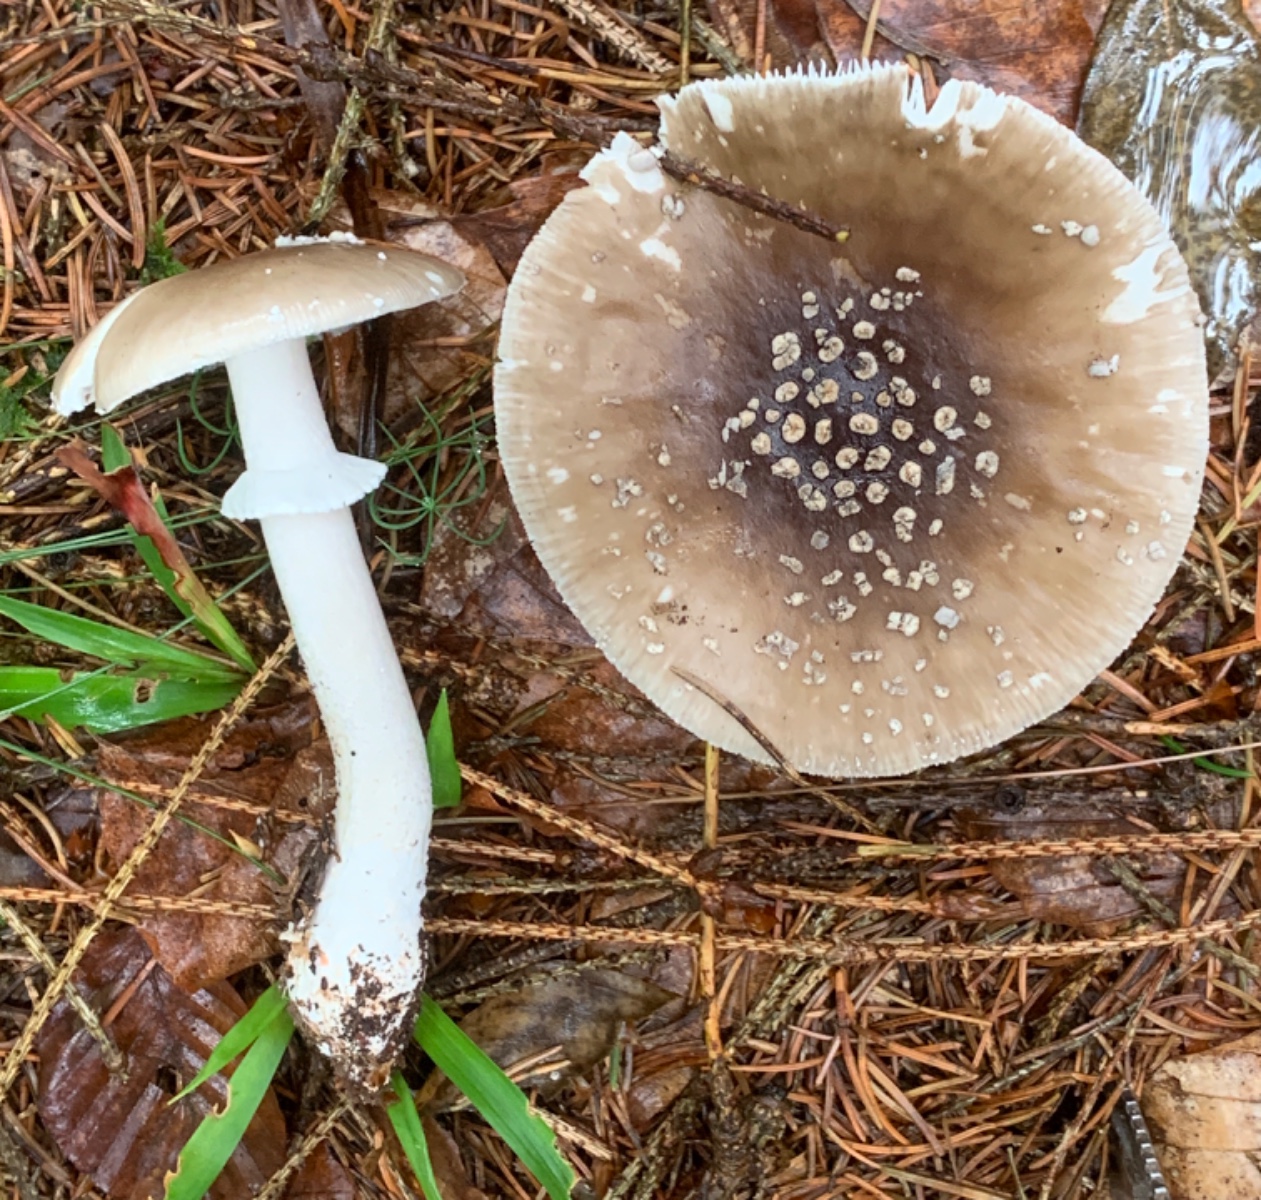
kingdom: Fungi
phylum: Basidiomycota
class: Agaricomycetes
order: Agaricales
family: Amanitaceae
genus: Amanita
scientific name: Amanita
